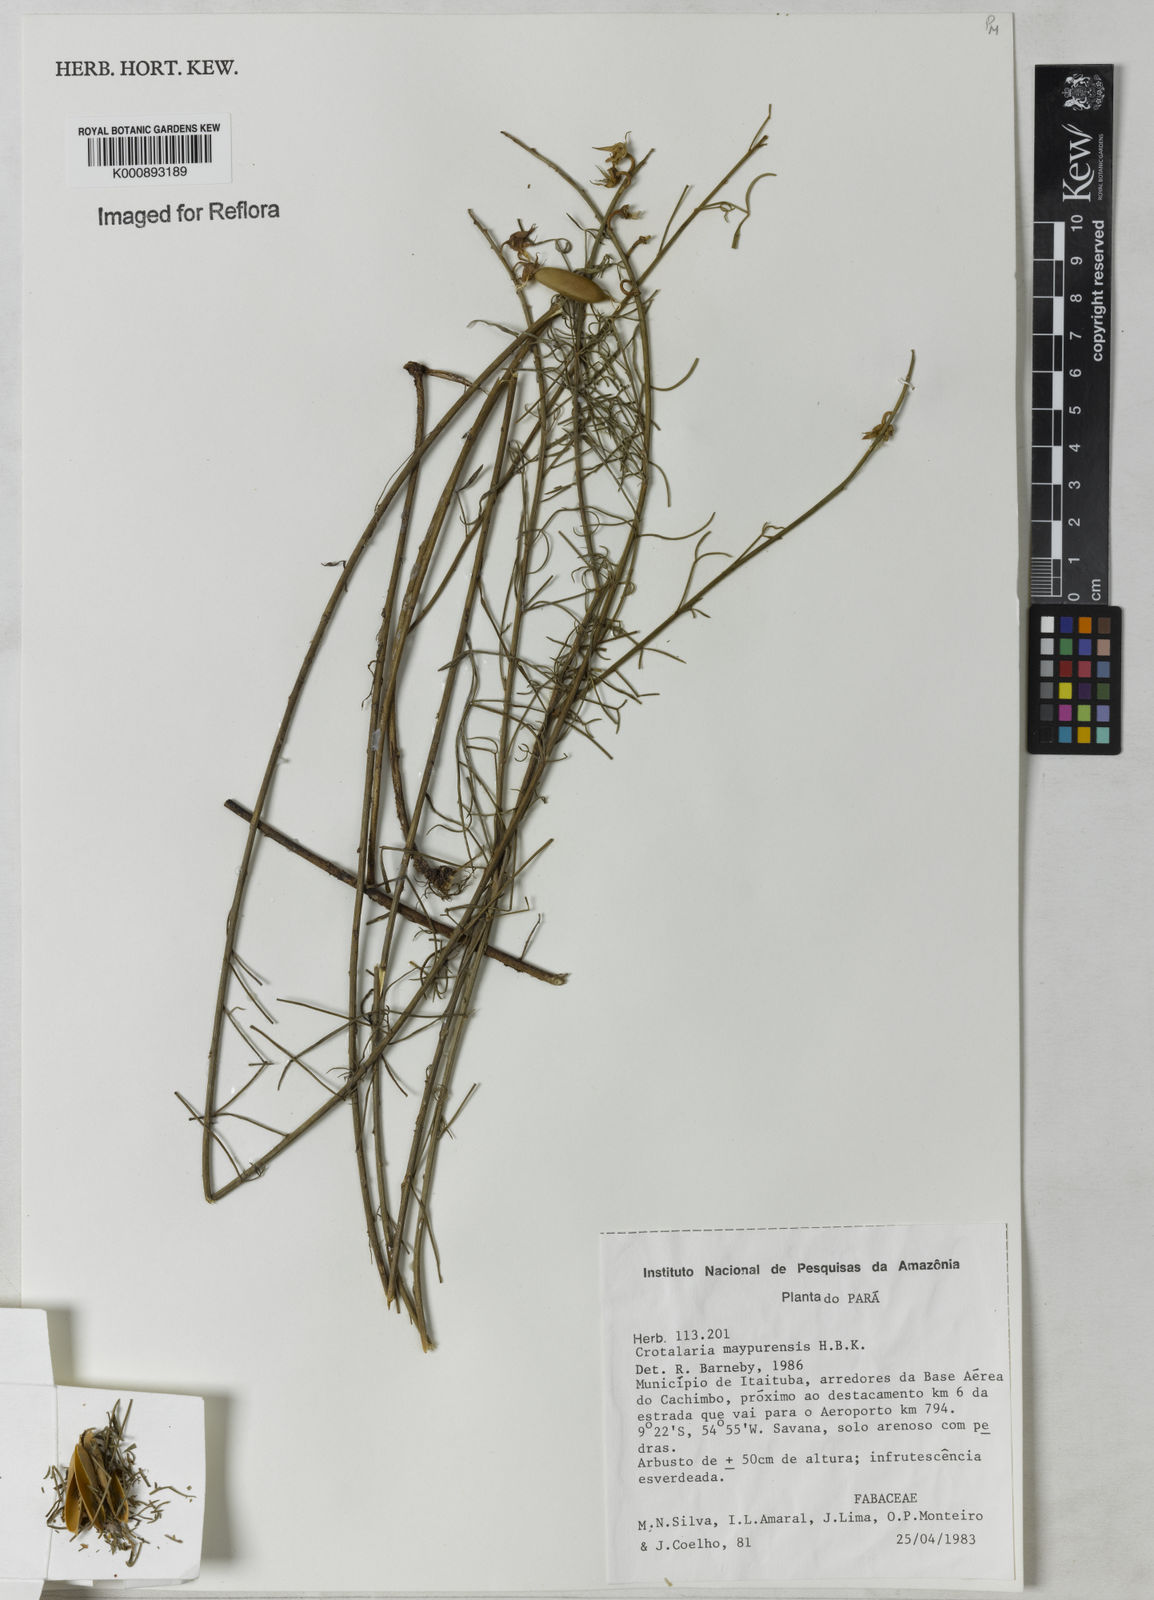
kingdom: Plantae
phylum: Tracheophyta
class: Magnoliopsida
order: Fabales
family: Fabaceae
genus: Crotalaria
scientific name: Crotalaria maypurensis
